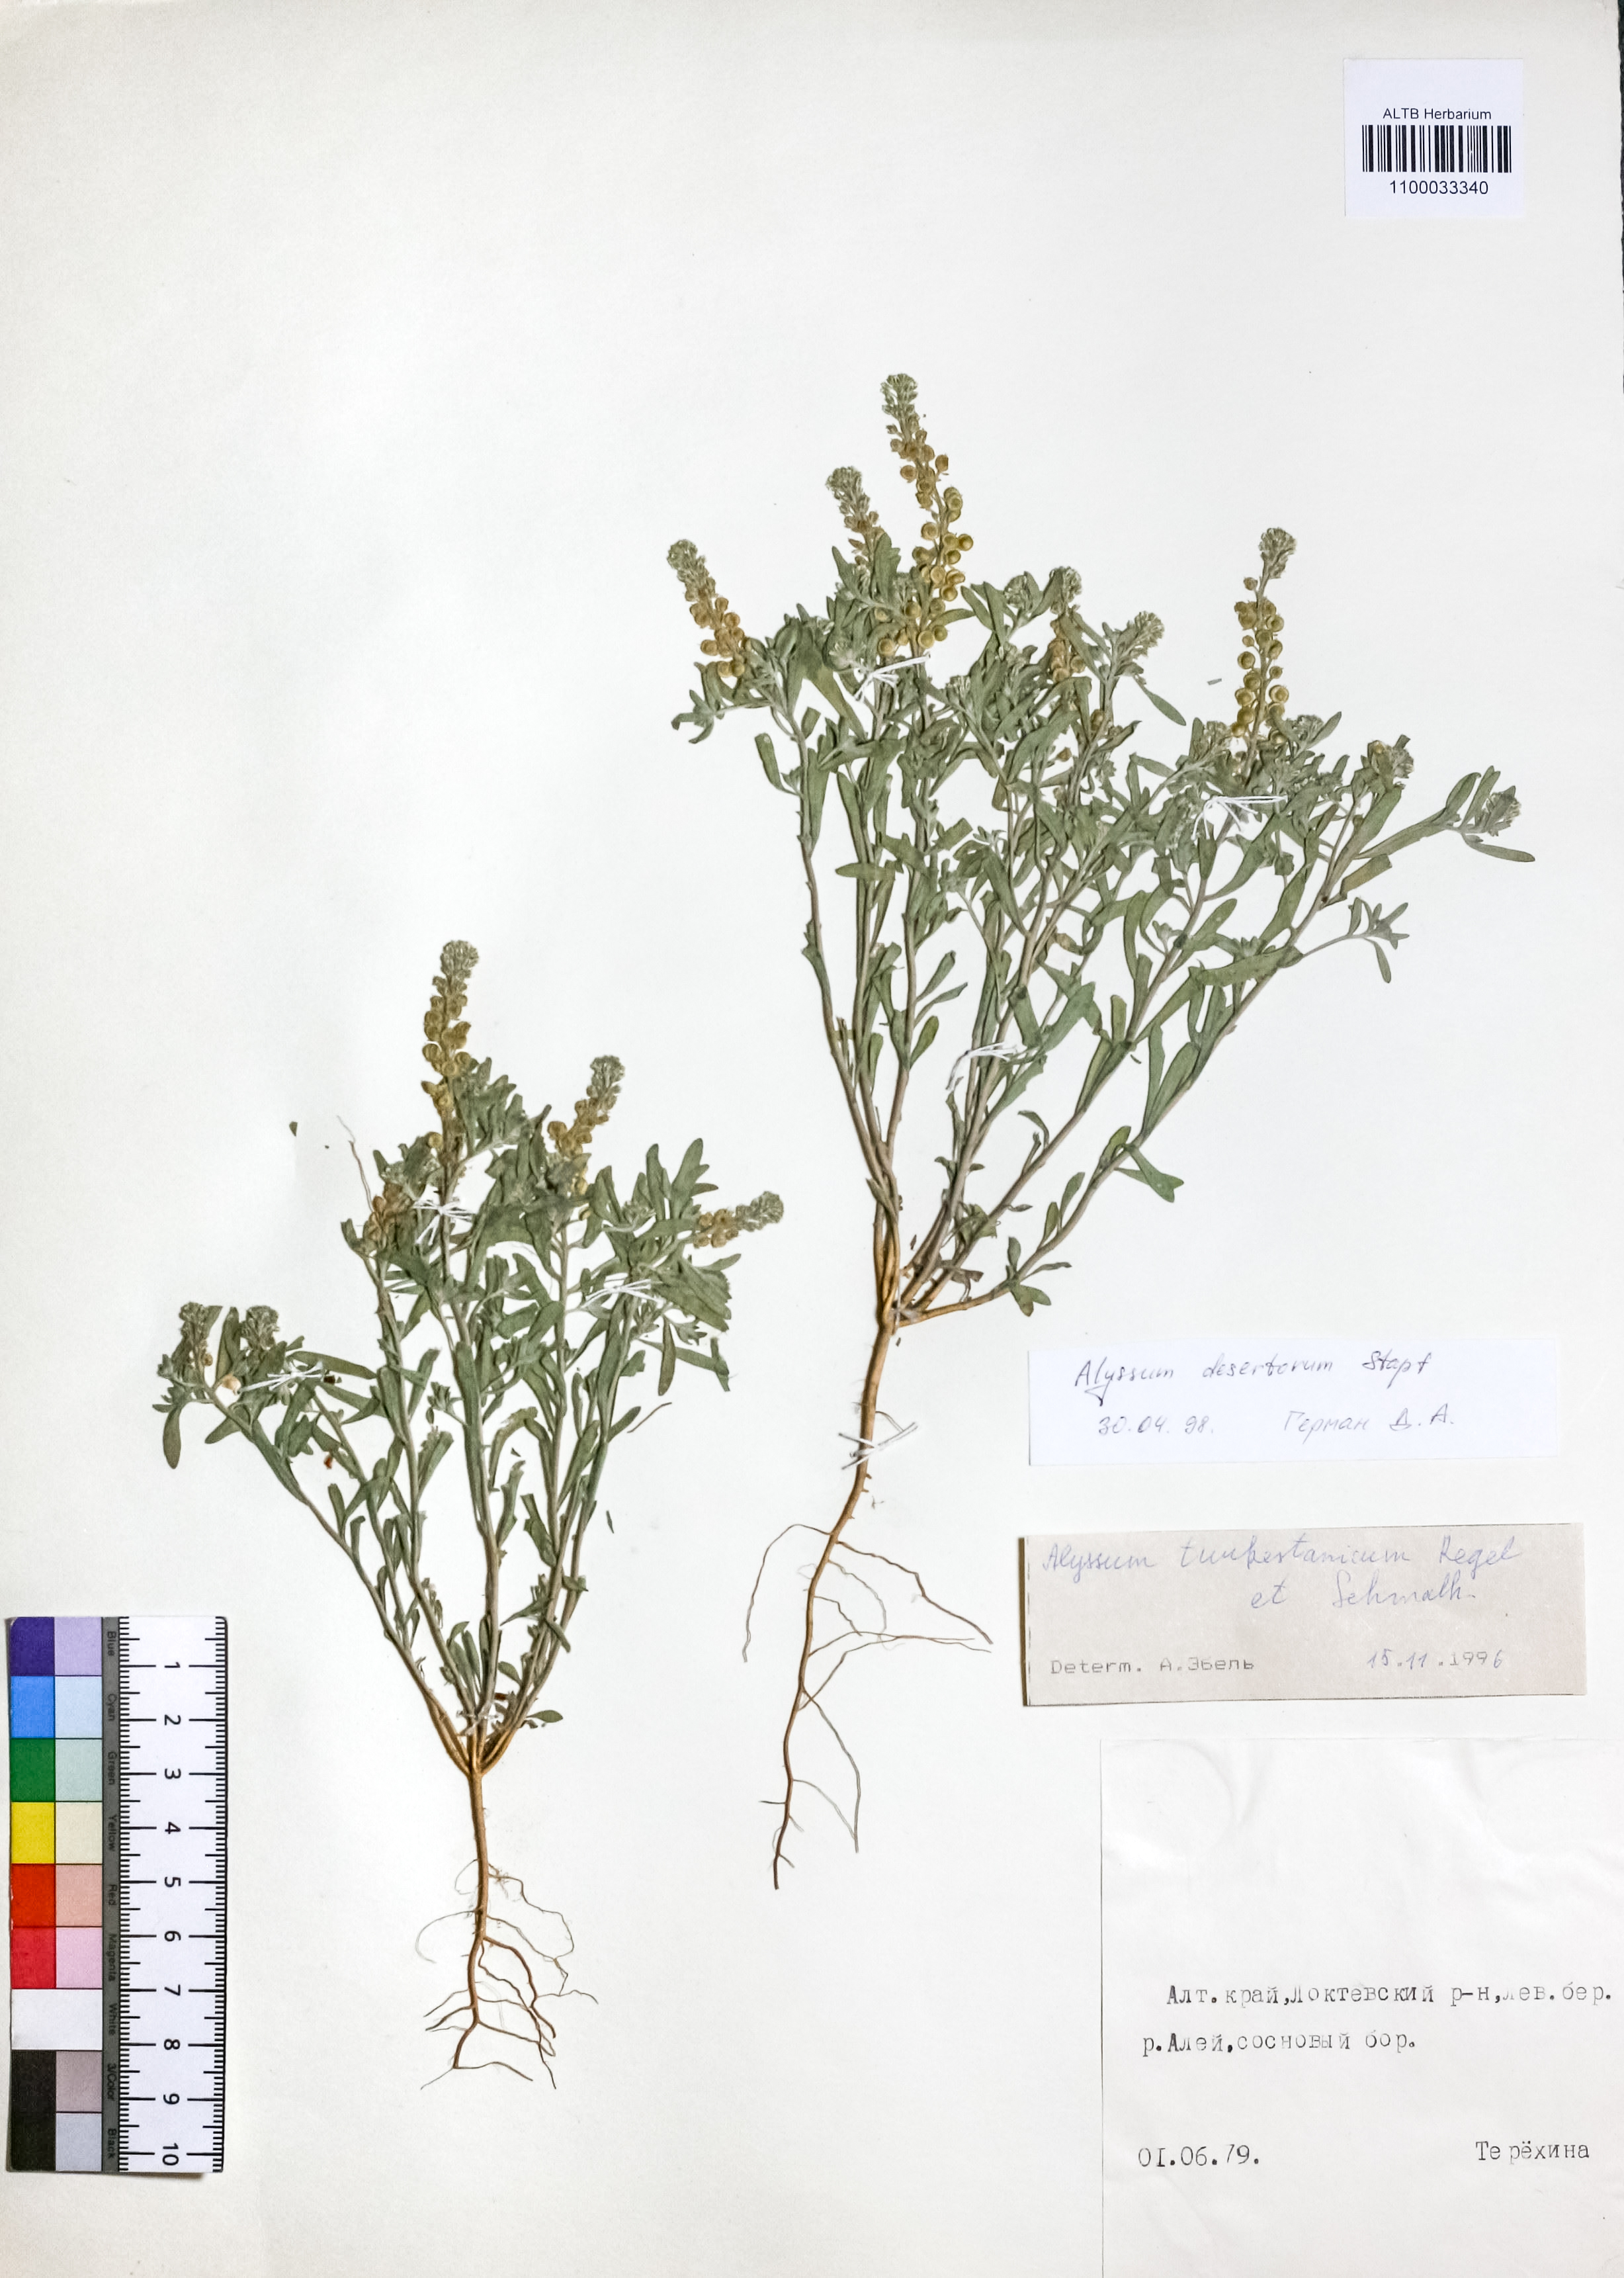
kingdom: Plantae
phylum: Tracheophyta
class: Magnoliopsida
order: Brassicales
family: Brassicaceae
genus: Alyssum
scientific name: Alyssum turkestanicum
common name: Desert alyssum
